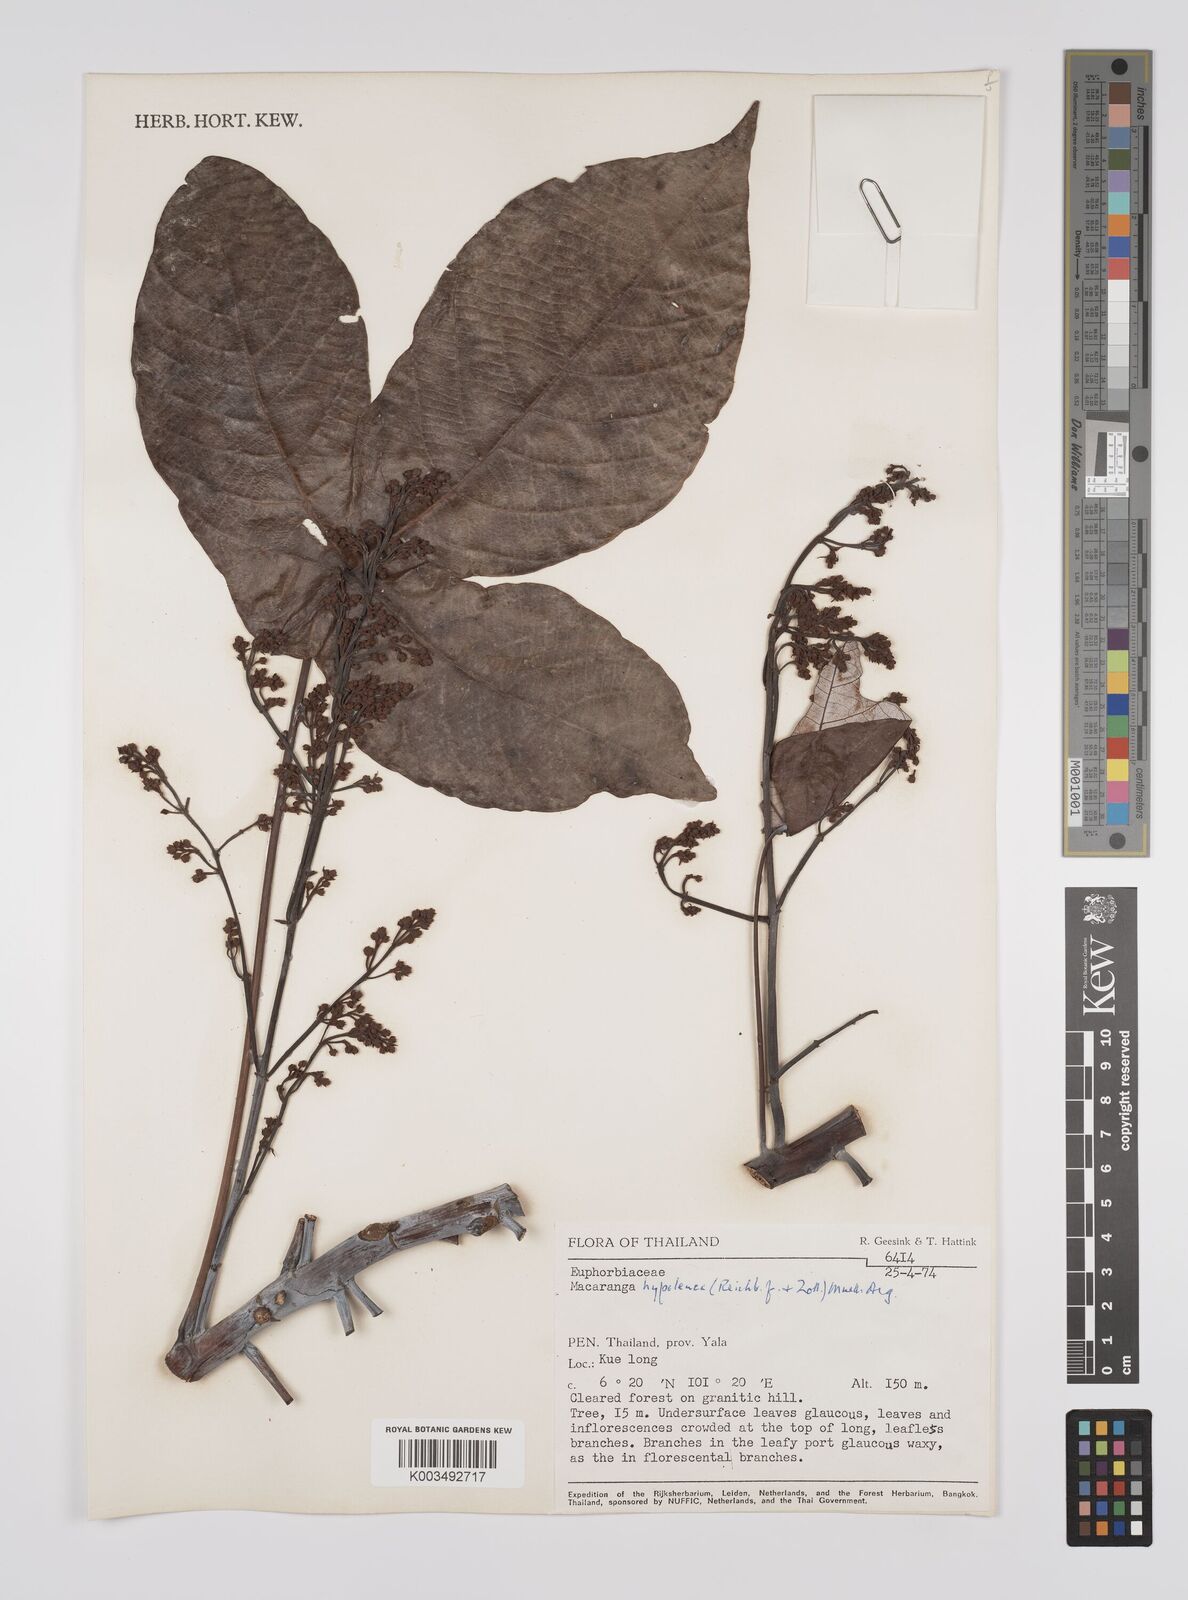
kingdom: Plantae
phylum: Tracheophyta
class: Magnoliopsida
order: Malpighiales
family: Euphorbiaceae
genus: Macaranga
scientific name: Macaranga hypoleuca
